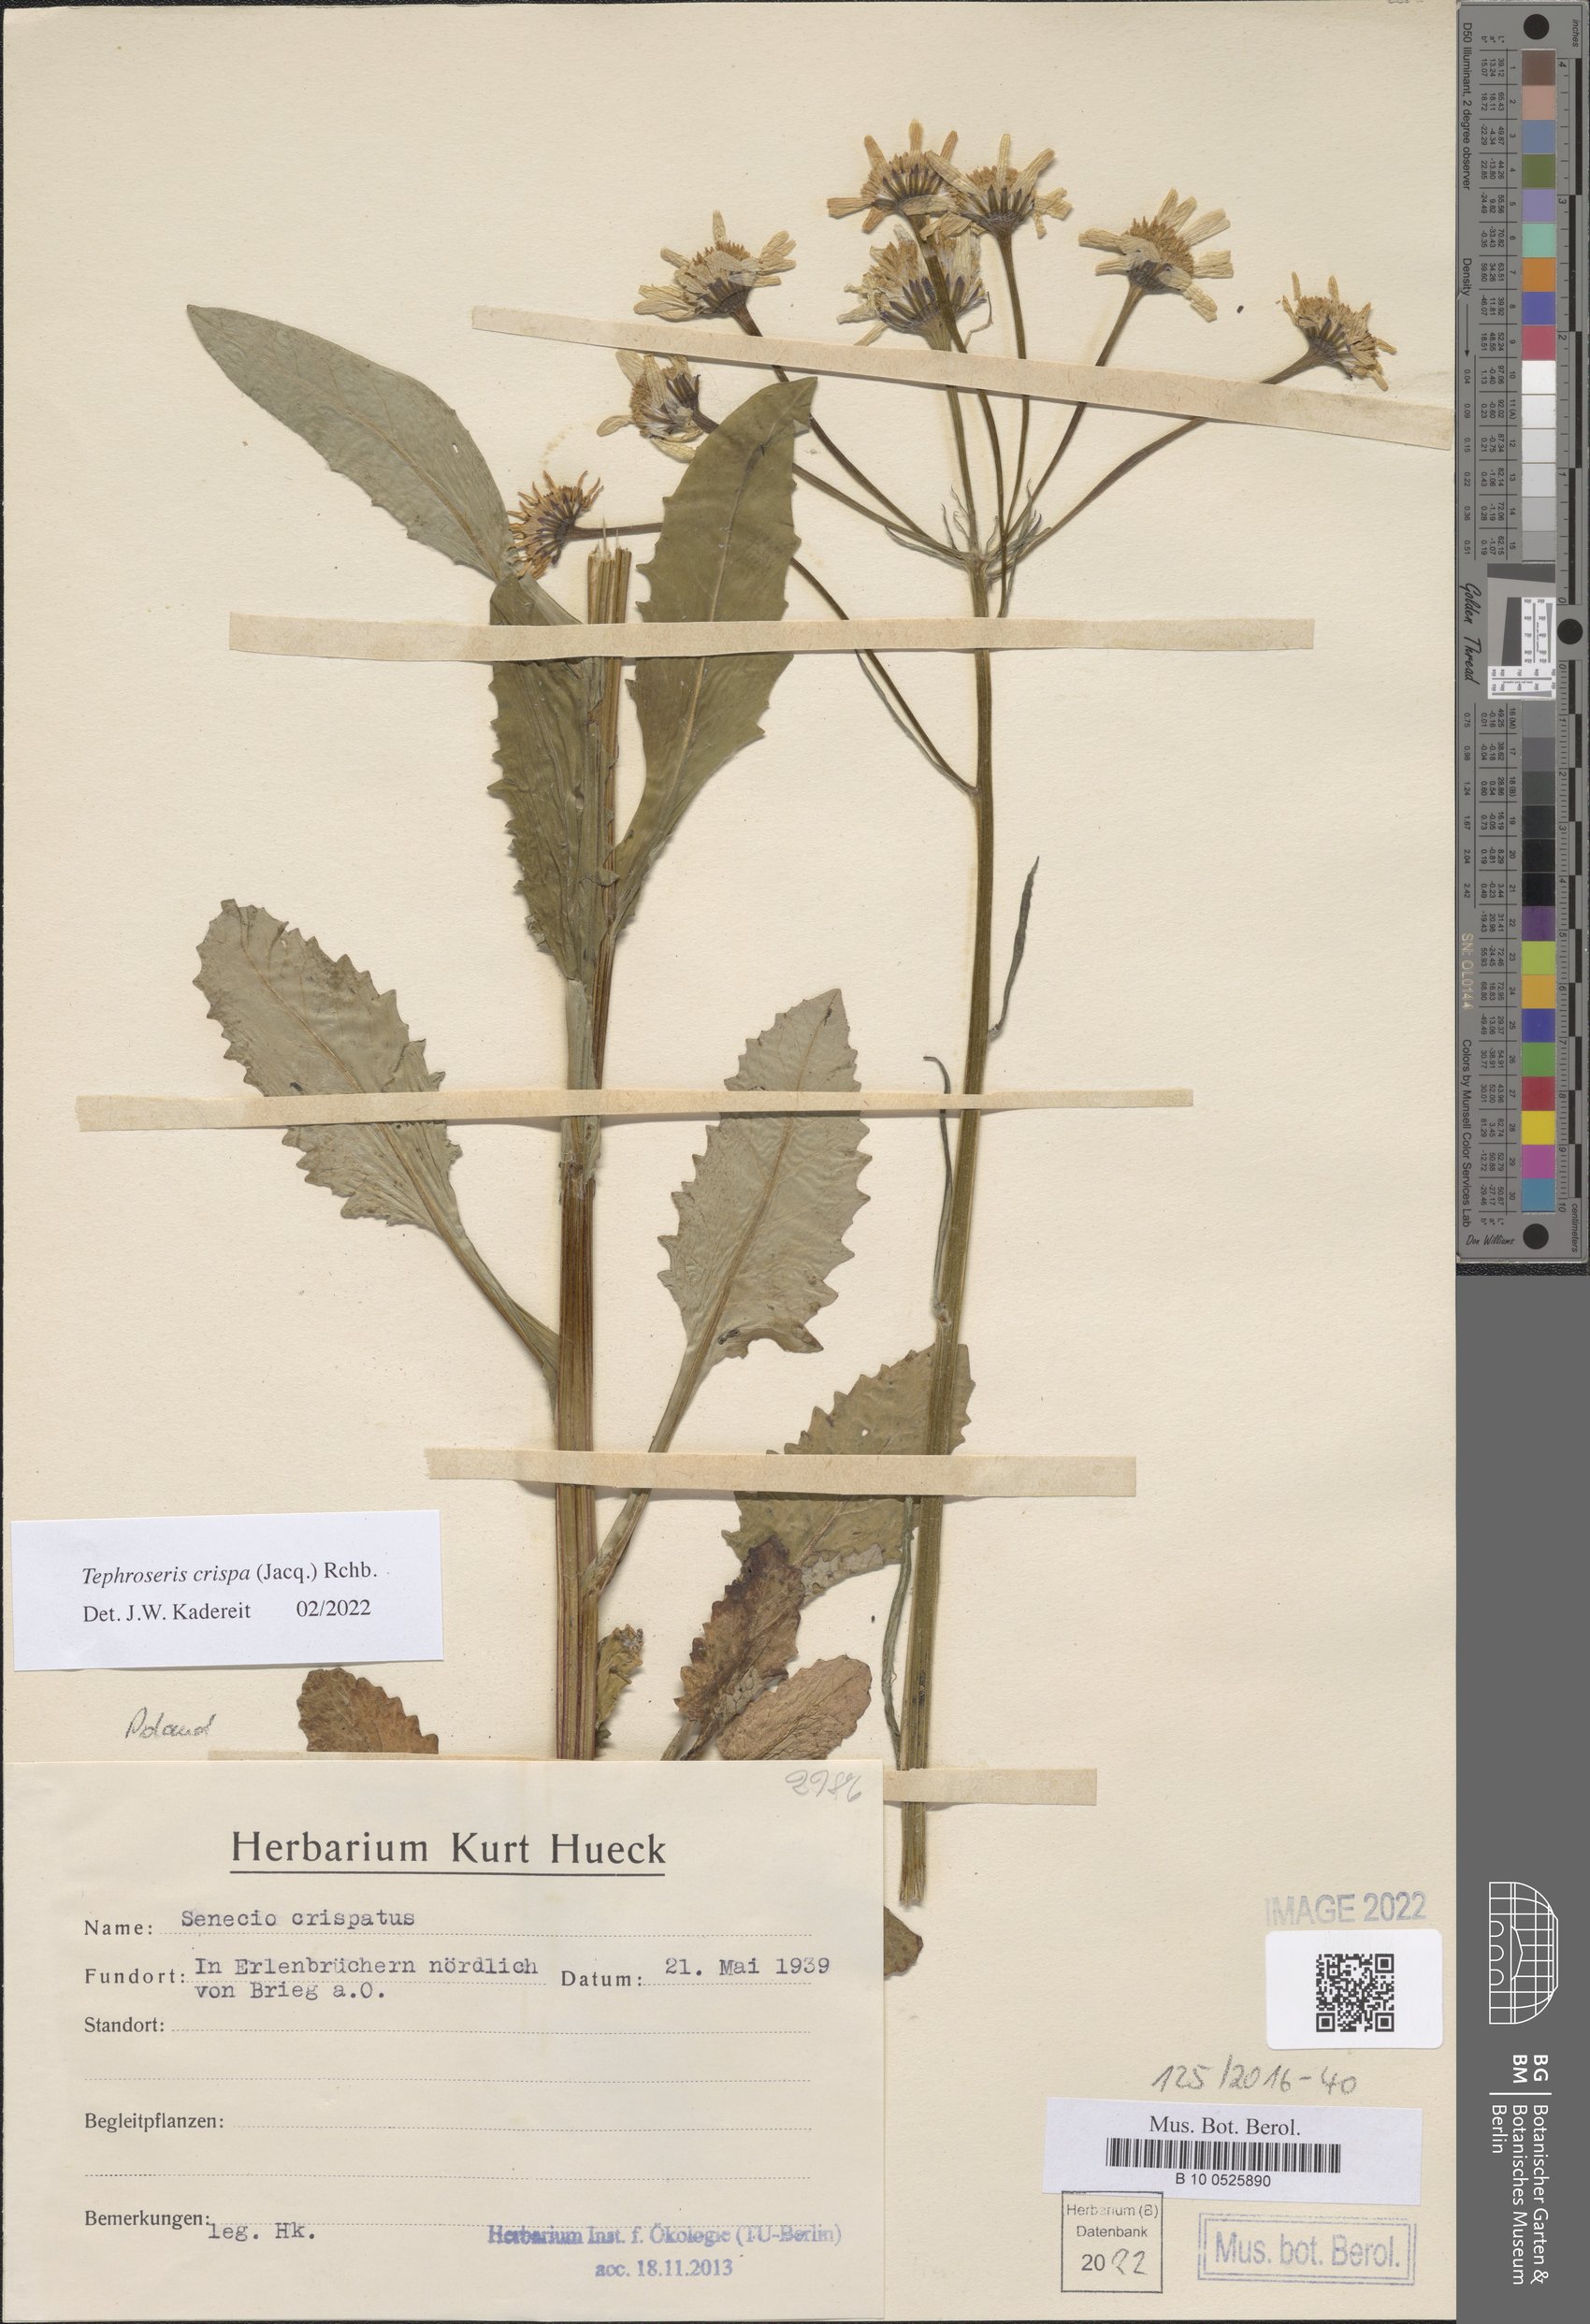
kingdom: Plantae
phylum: Tracheophyta
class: Magnoliopsida
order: Asterales
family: Asteraceae
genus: Tephroseris
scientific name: Tephroseris crispa
